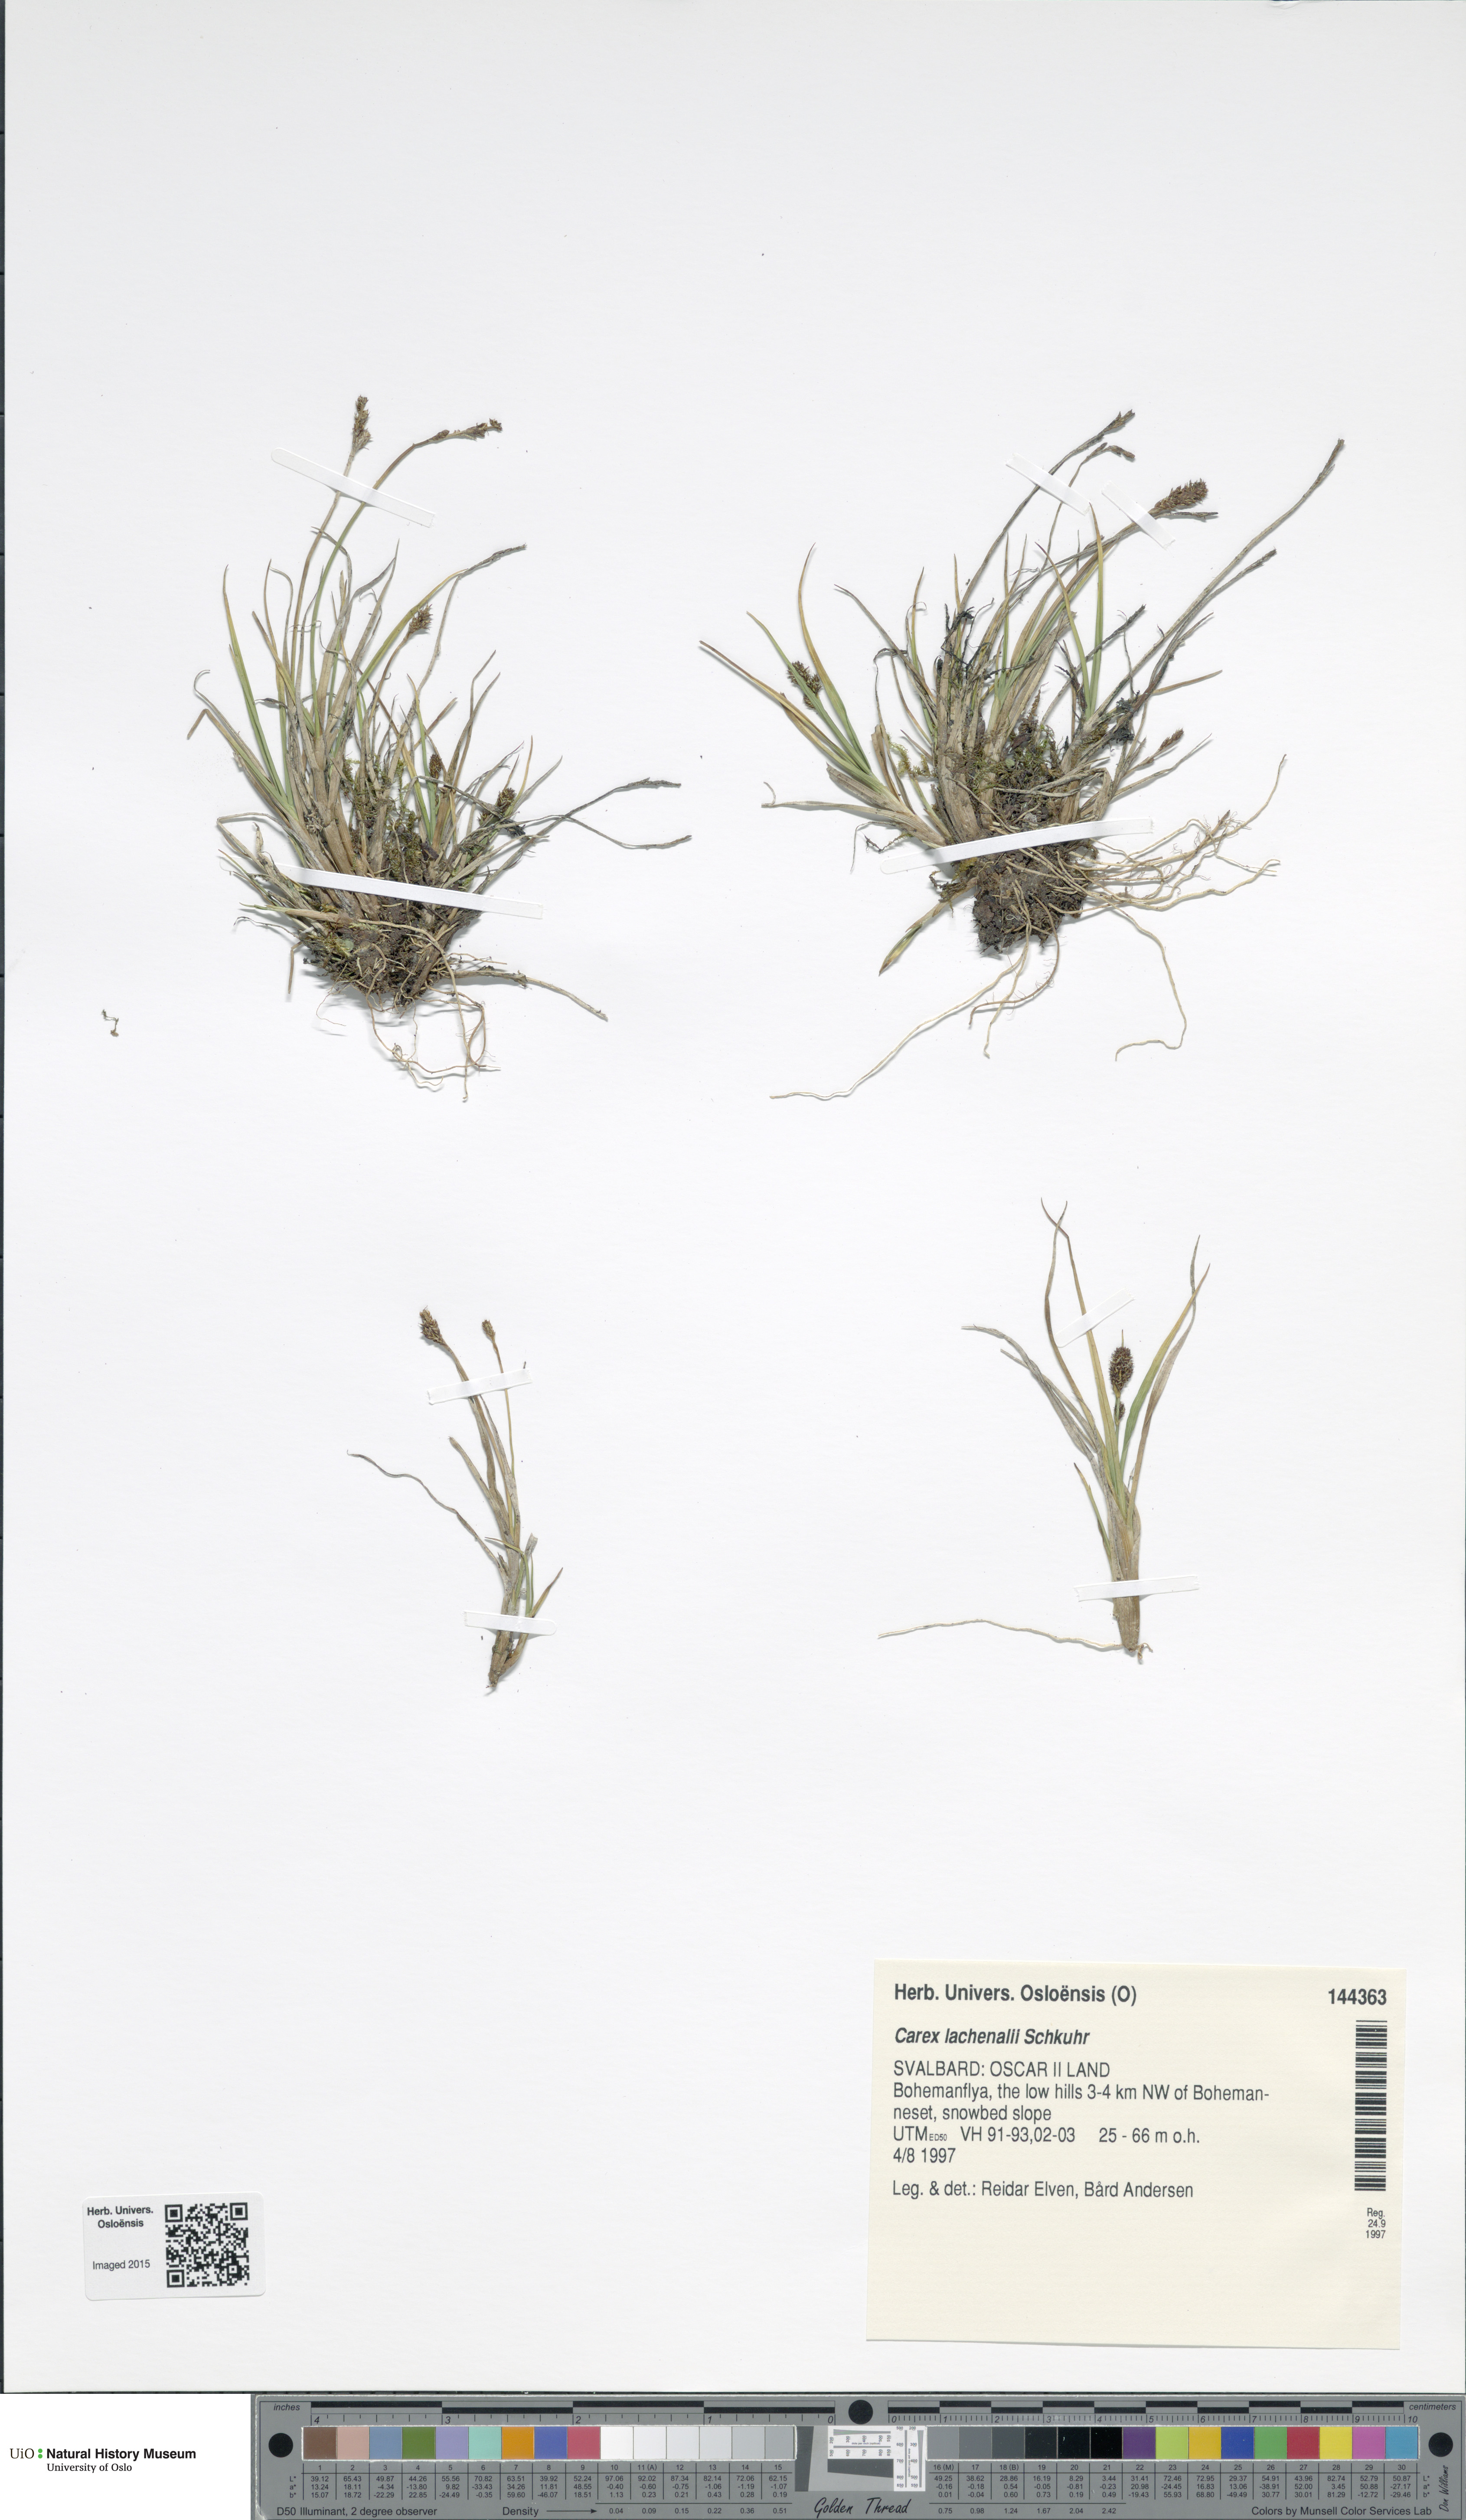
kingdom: Plantae
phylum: Tracheophyta
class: Liliopsida
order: Poales
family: Cyperaceae
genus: Carex
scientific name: Carex lachenalii
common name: Hare's-foot sedge
